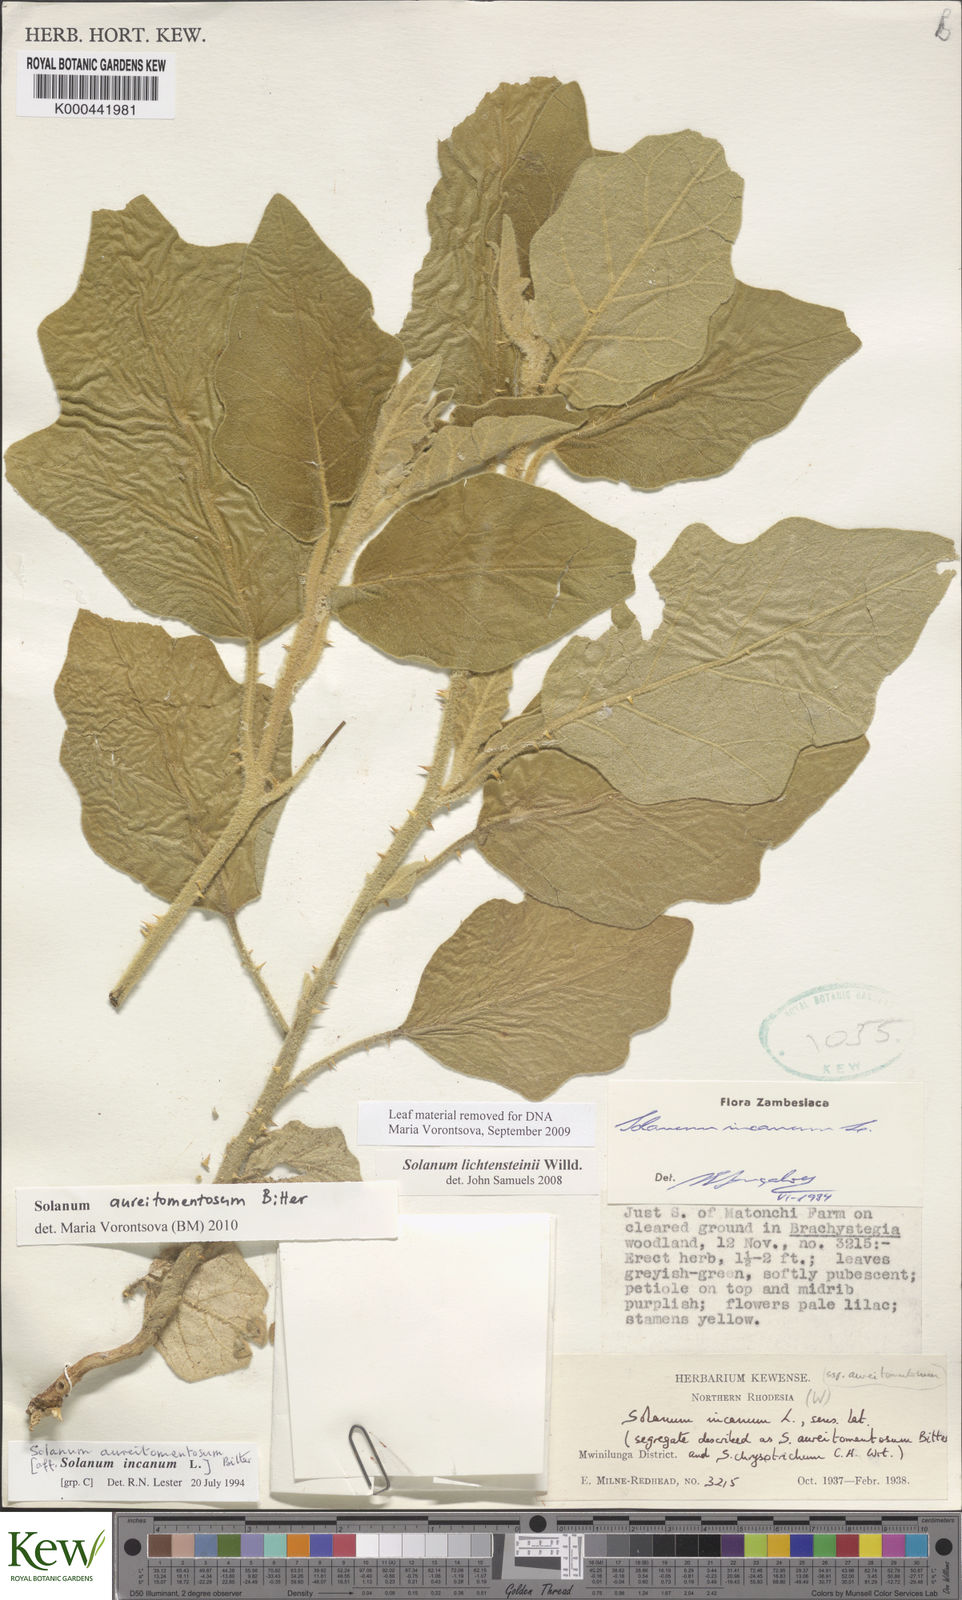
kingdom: Plantae
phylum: Tracheophyta
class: Magnoliopsida
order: Solanales
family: Solanaceae
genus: Solanum
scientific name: Solanum aureitomentosum
